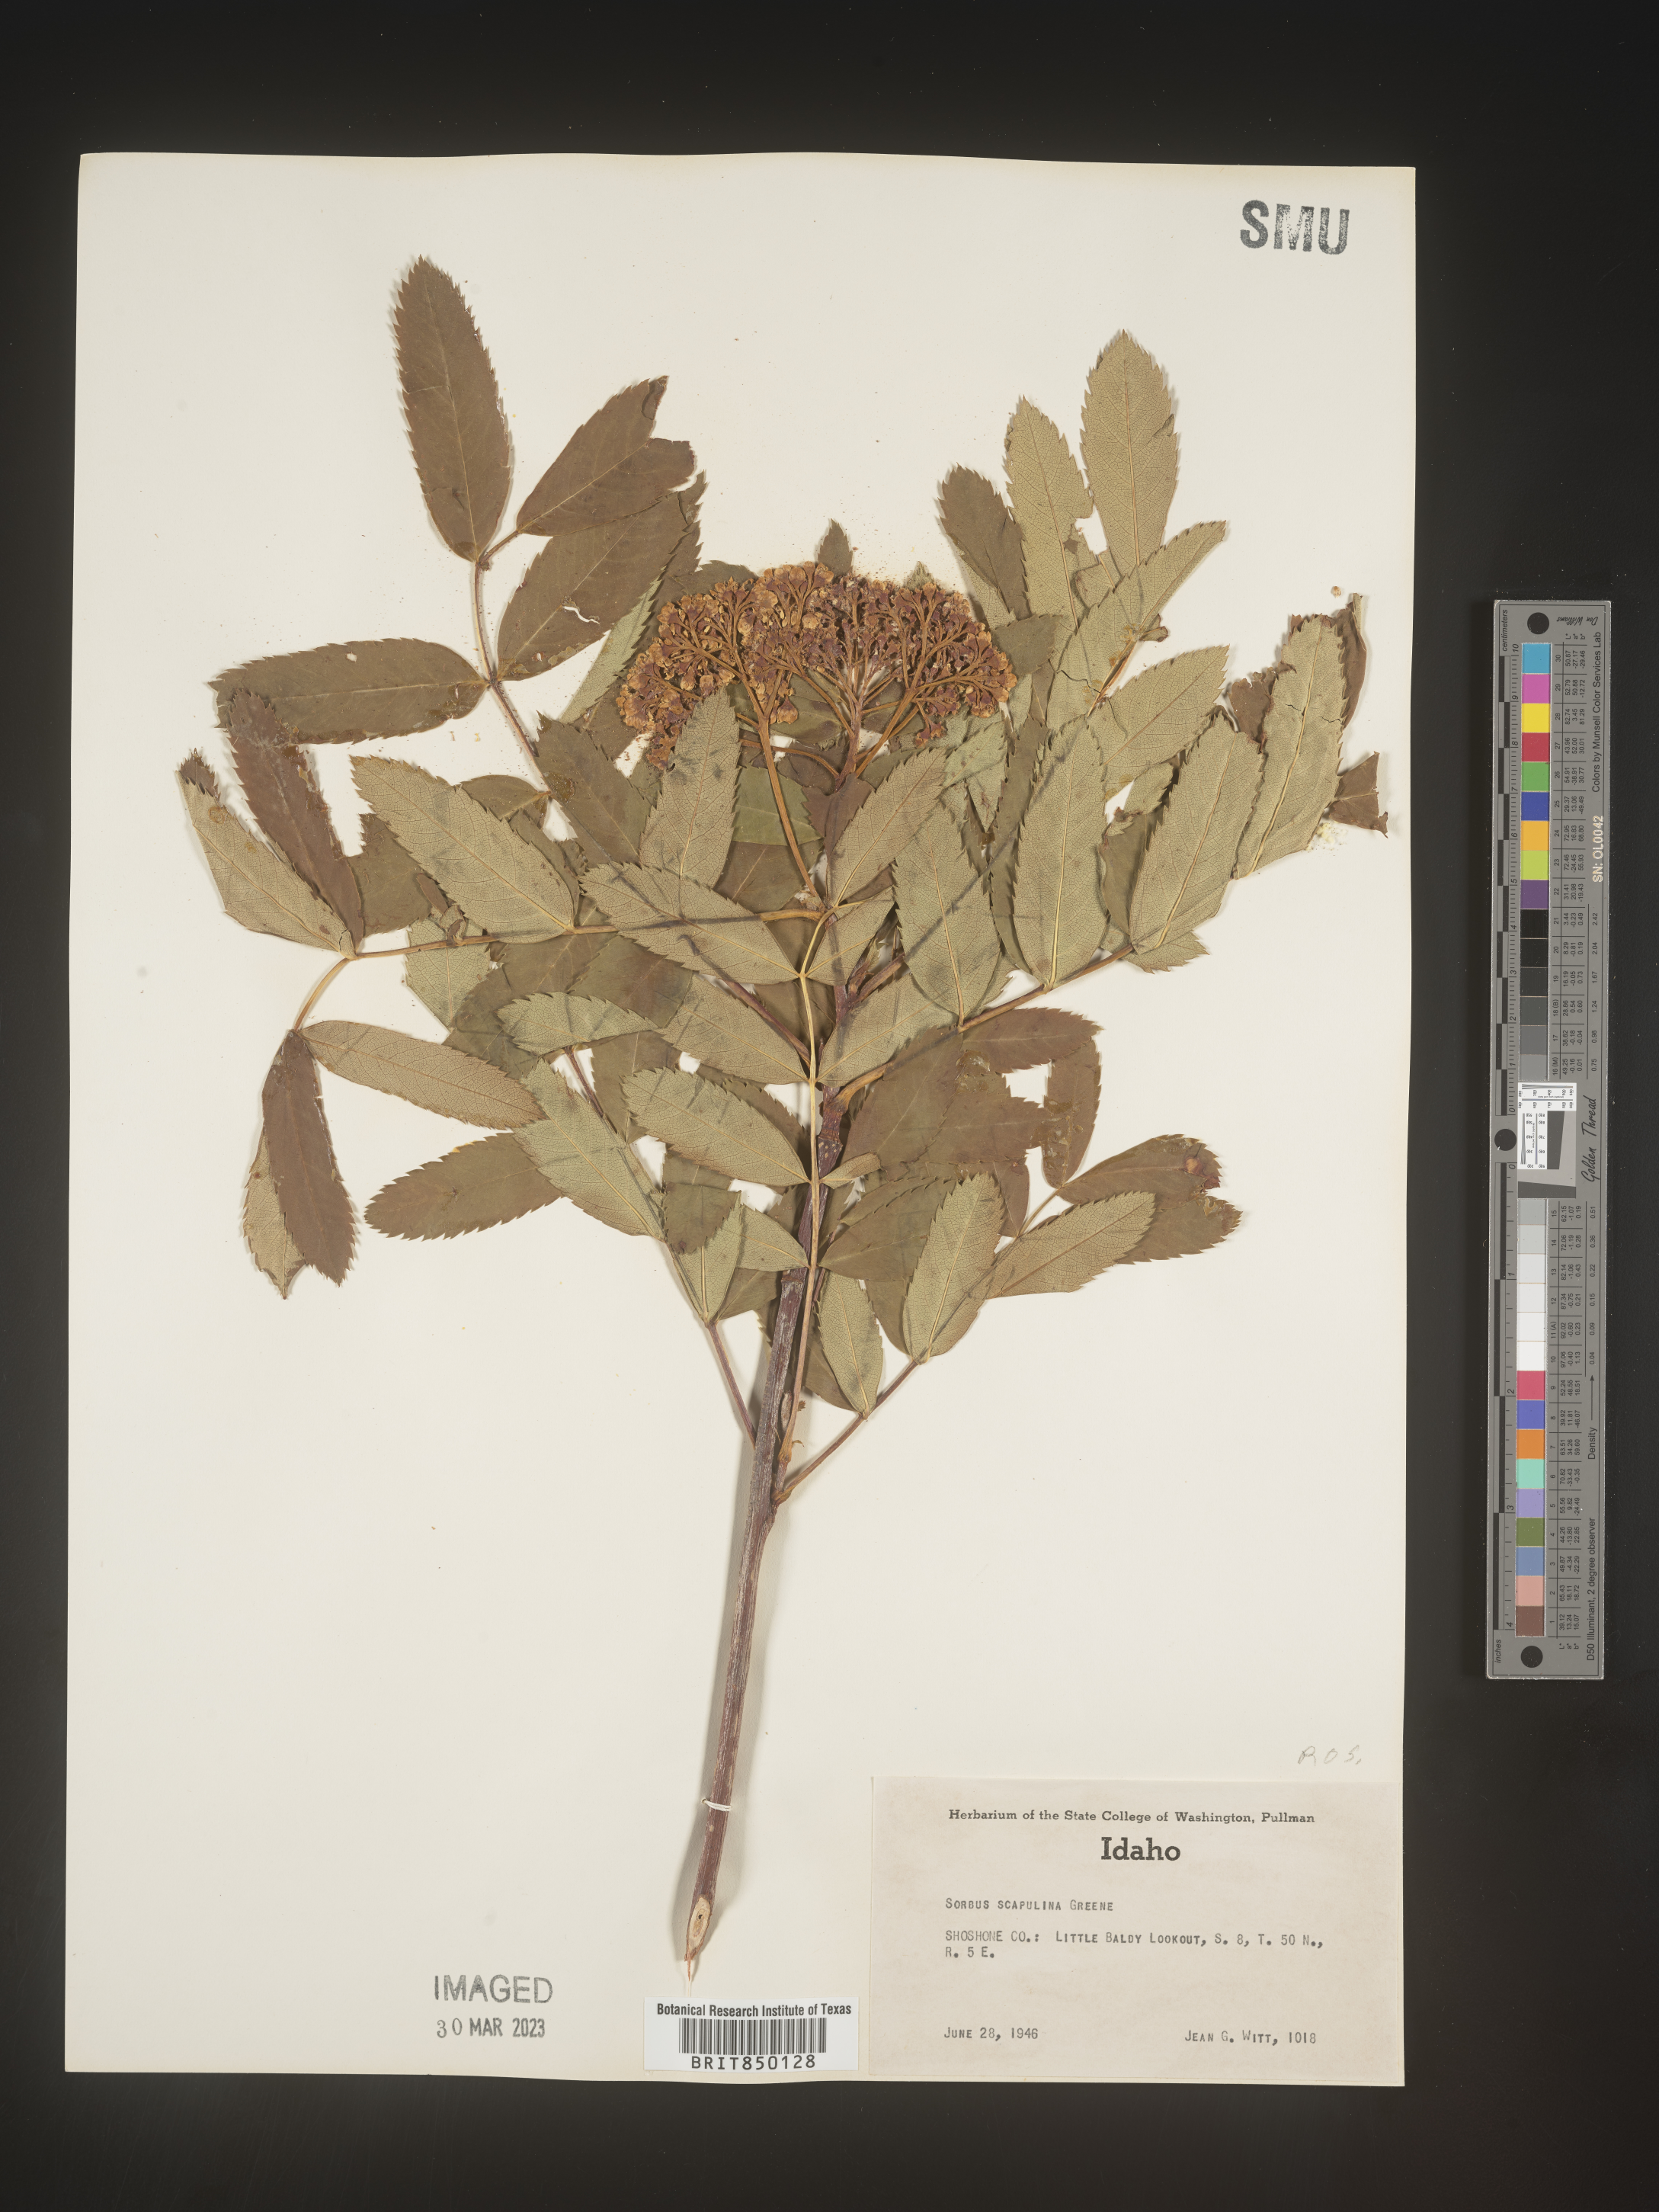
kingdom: Plantae
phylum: Tracheophyta
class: Magnoliopsida
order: Rosales
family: Rosaceae
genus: Sorbus
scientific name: Sorbus scopulina
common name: Greene's mountain-ash
